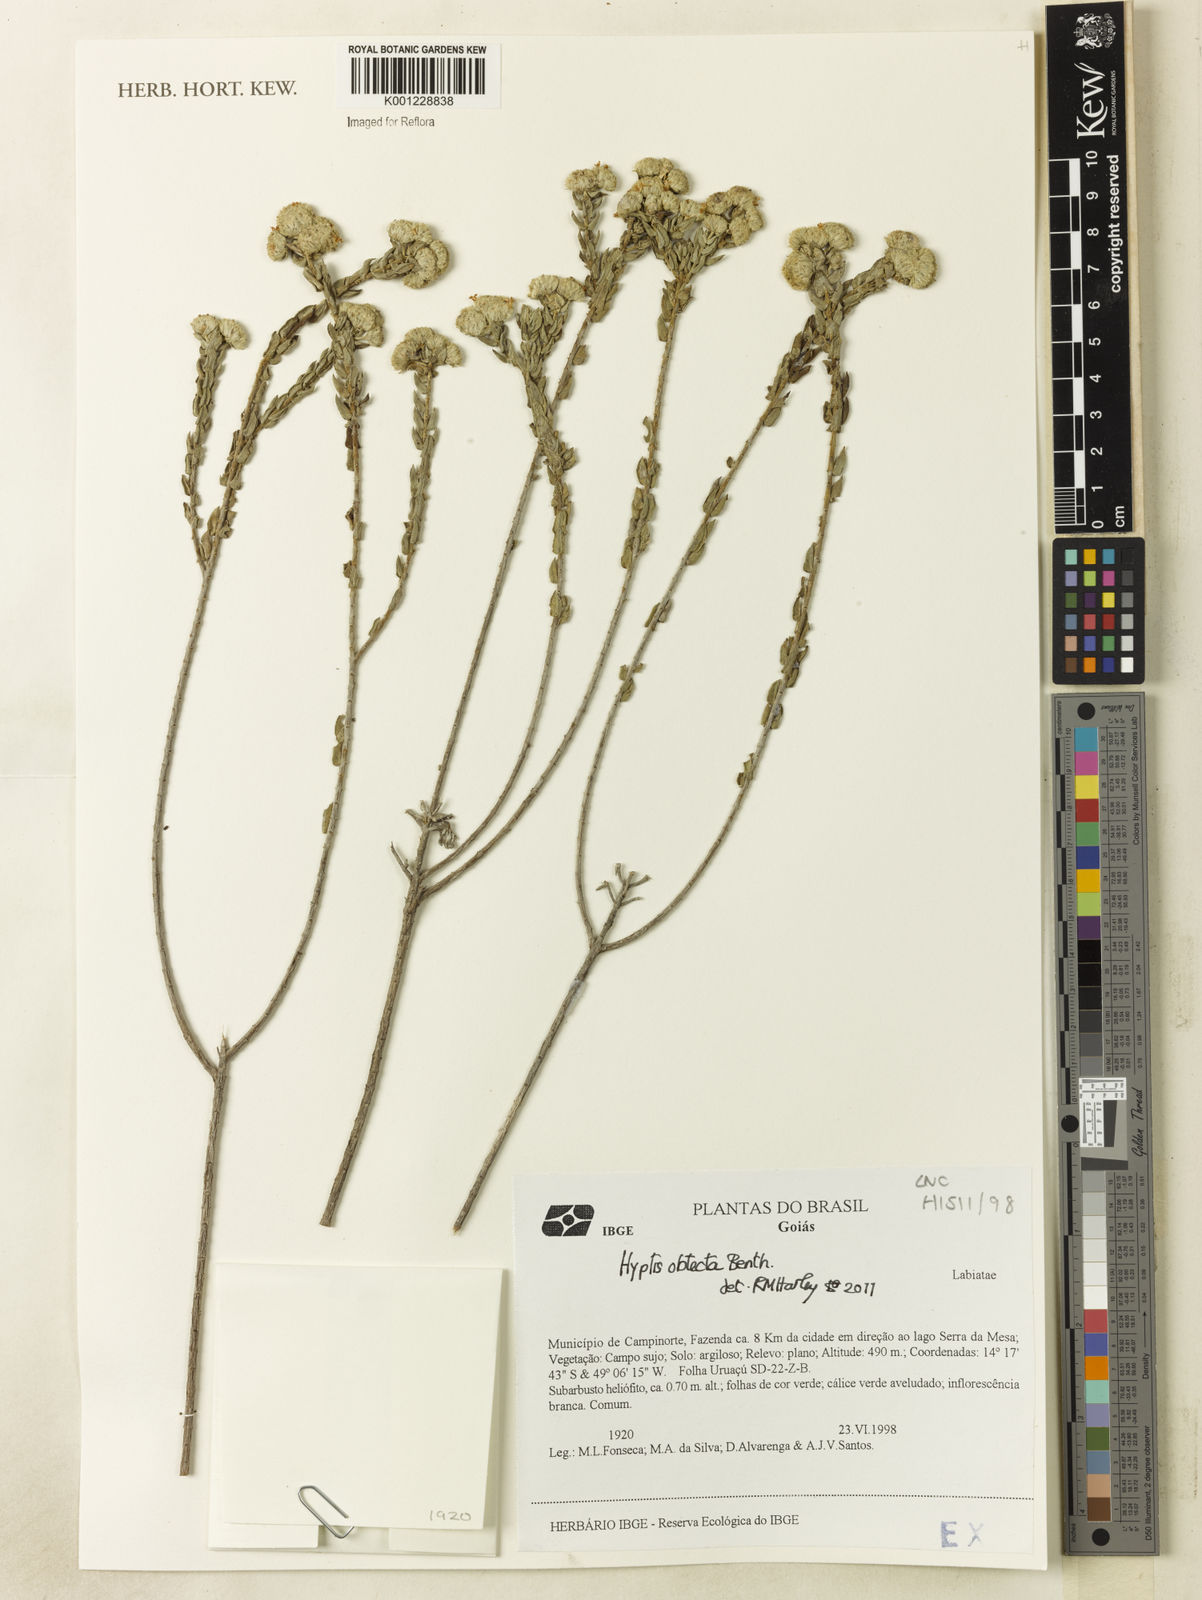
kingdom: Plantae
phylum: Tracheophyta
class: Magnoliopsida
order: Lamiales
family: Lamiaceae
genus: Hyptis
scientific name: Hyptis obtecta
